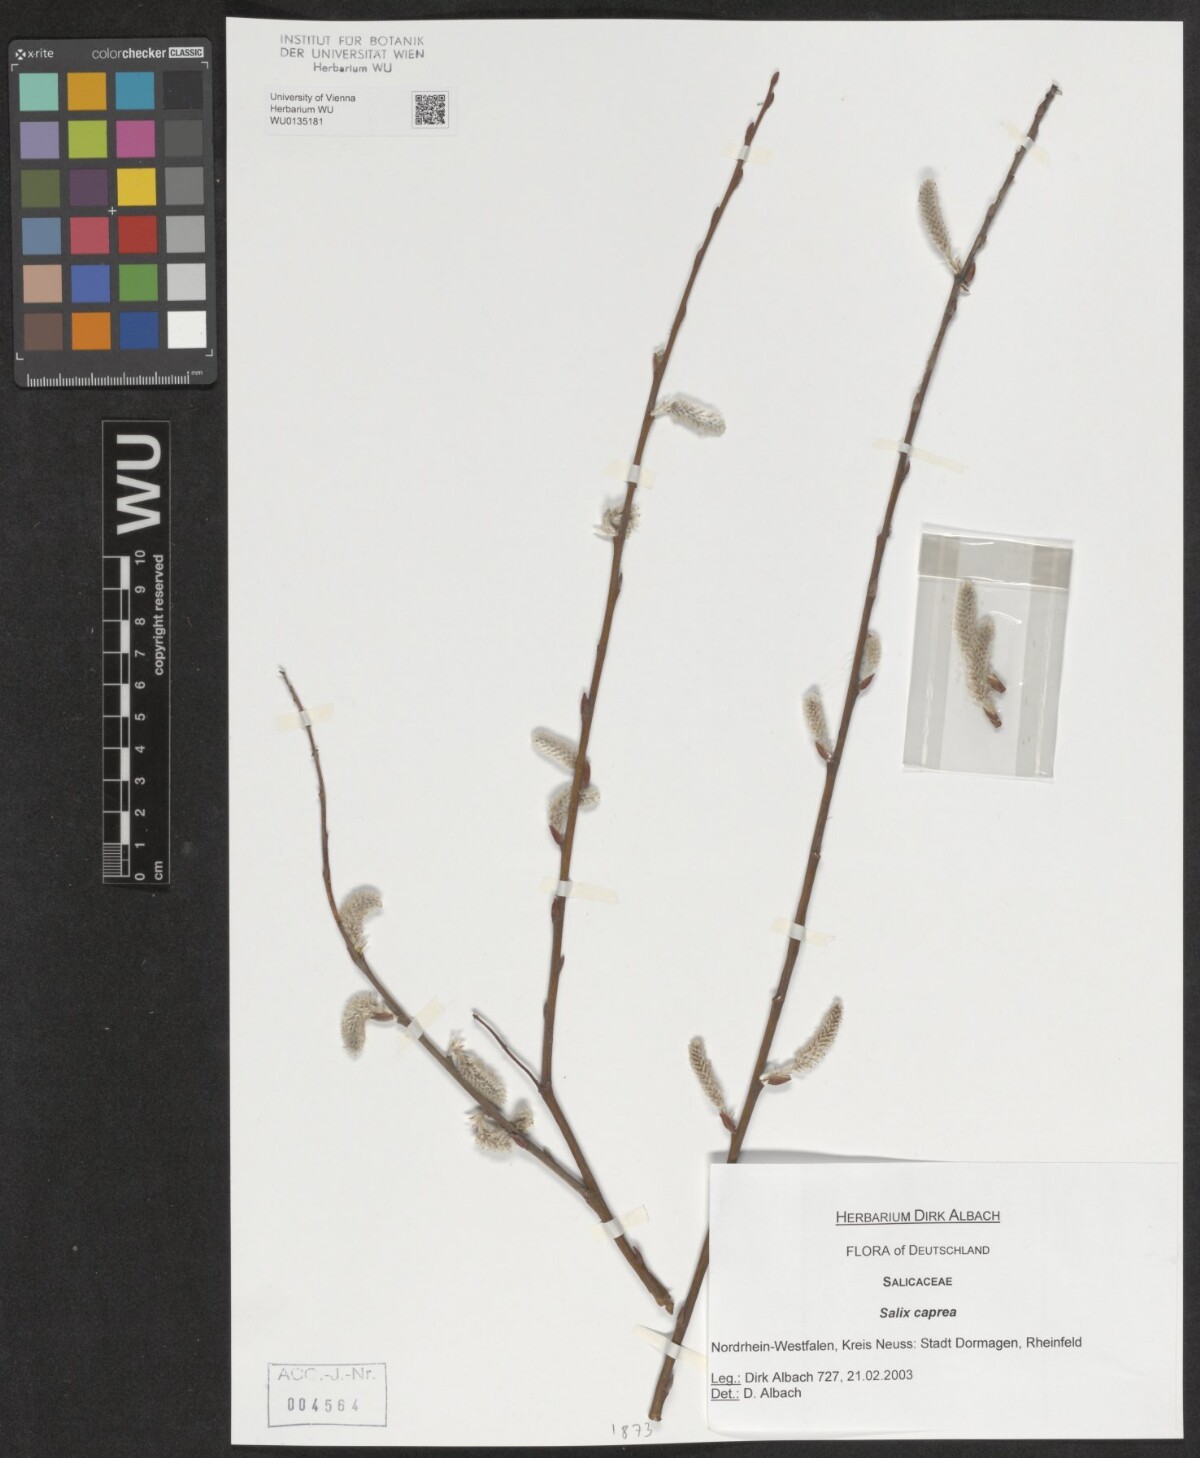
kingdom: Plantae
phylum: Tracheophyta
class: Magnoliopsida
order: Malpighiales
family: Salicaceae
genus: Salix
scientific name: Salix caprea
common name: Goat willow
